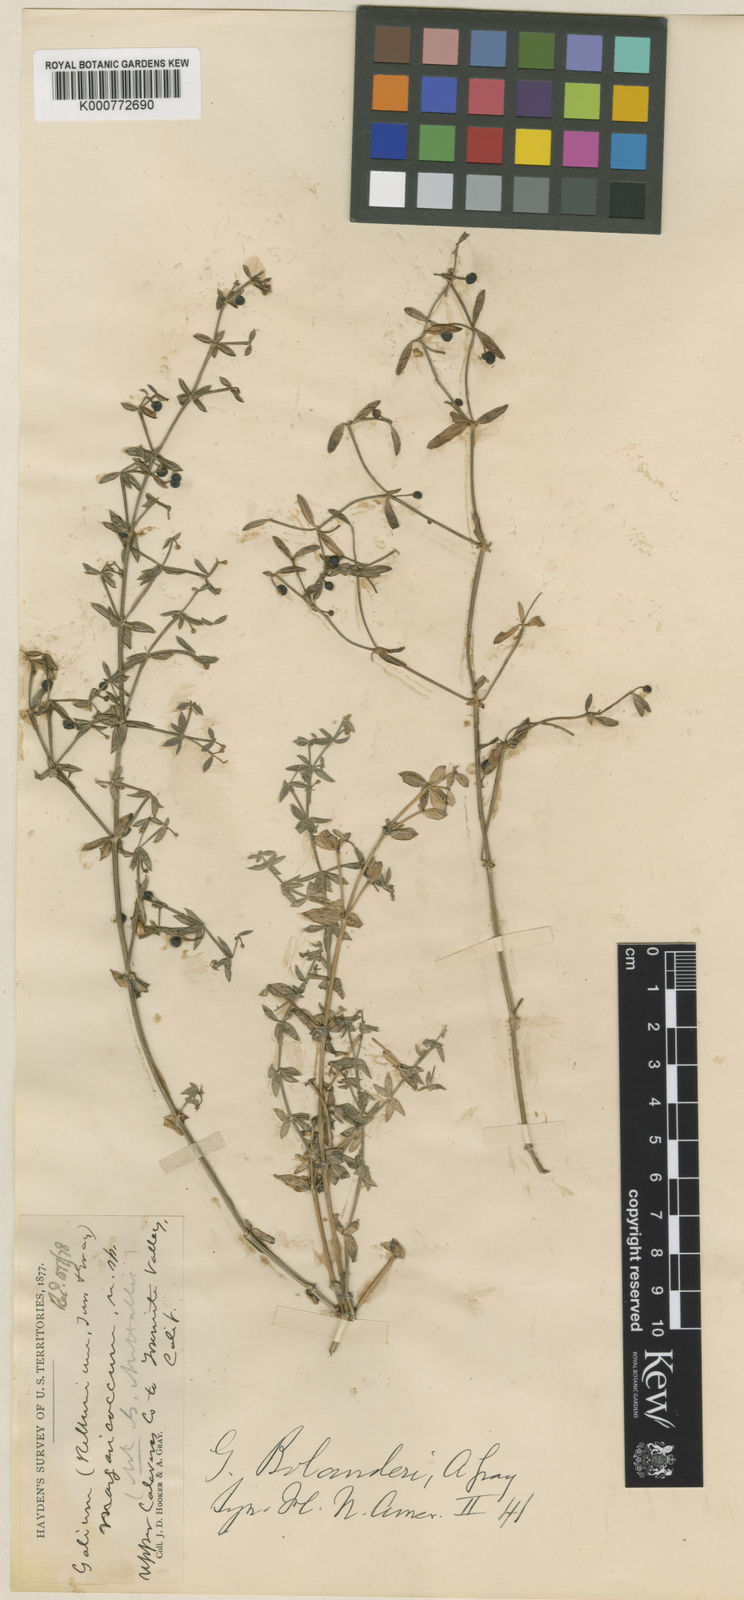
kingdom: Plantae
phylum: Tracheophyta
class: Magnoliopsida
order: Gentianales
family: Rubiaceae
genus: Galium
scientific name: Galium bolanderi
